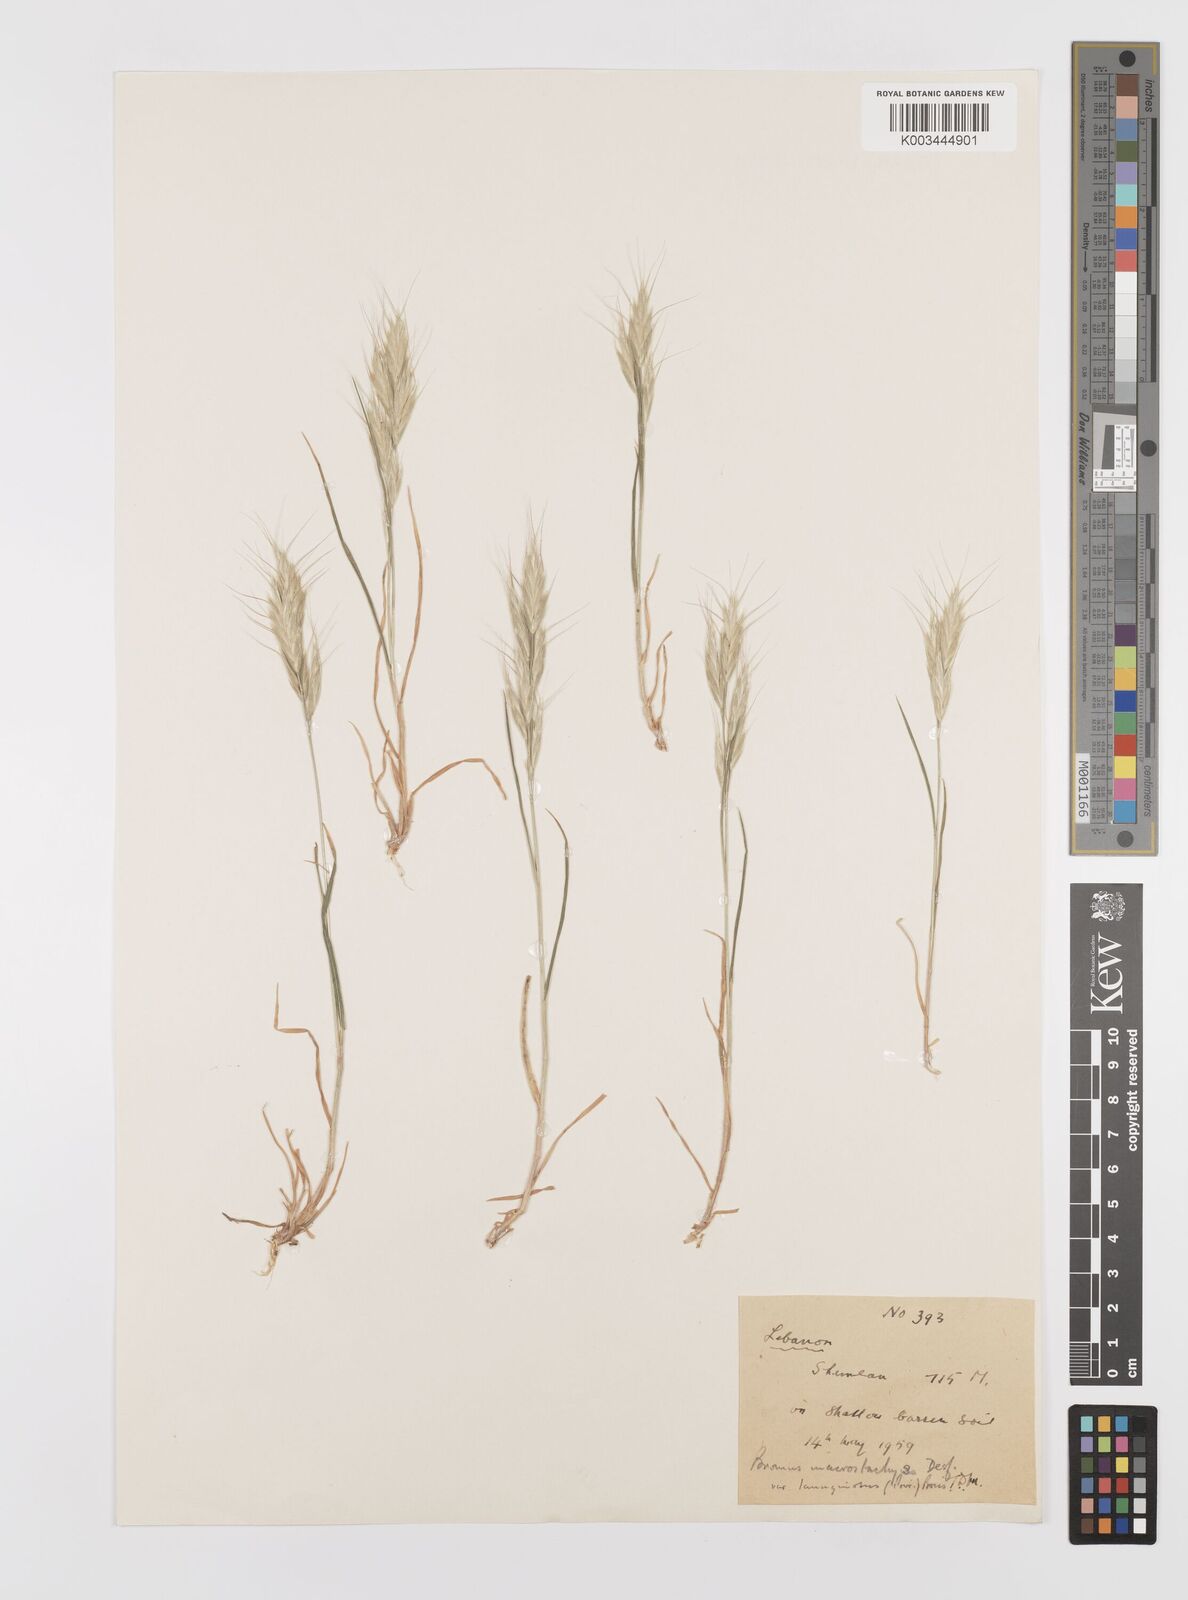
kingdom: Plantae
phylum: Tracheophyta
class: Liliopsida
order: Poales
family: Poaceae
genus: Bromus
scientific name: Bromus lanceolatus
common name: Mediterranean brome
